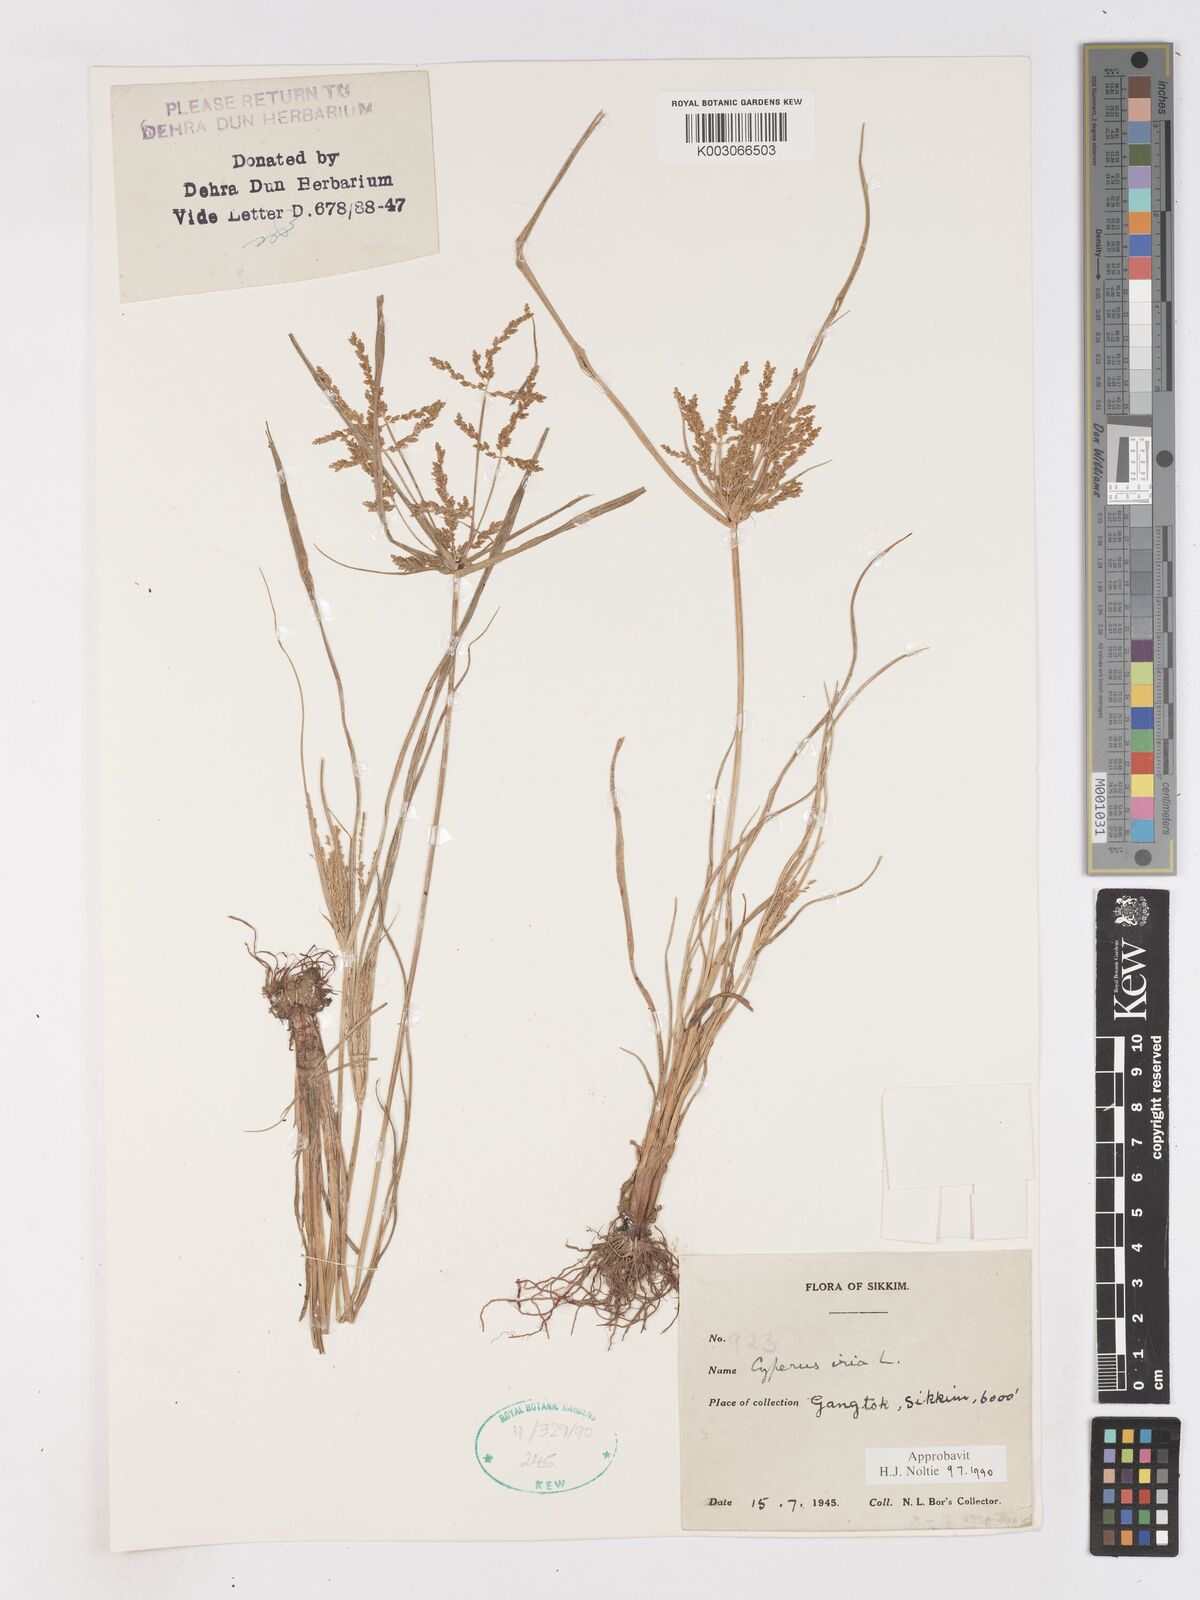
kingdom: Plantae
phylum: Tracheophyta
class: Liliopsida
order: Poales
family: Cyperaceae
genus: Cyperus
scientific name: Cyperus iria
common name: Ricefield flatsedge
